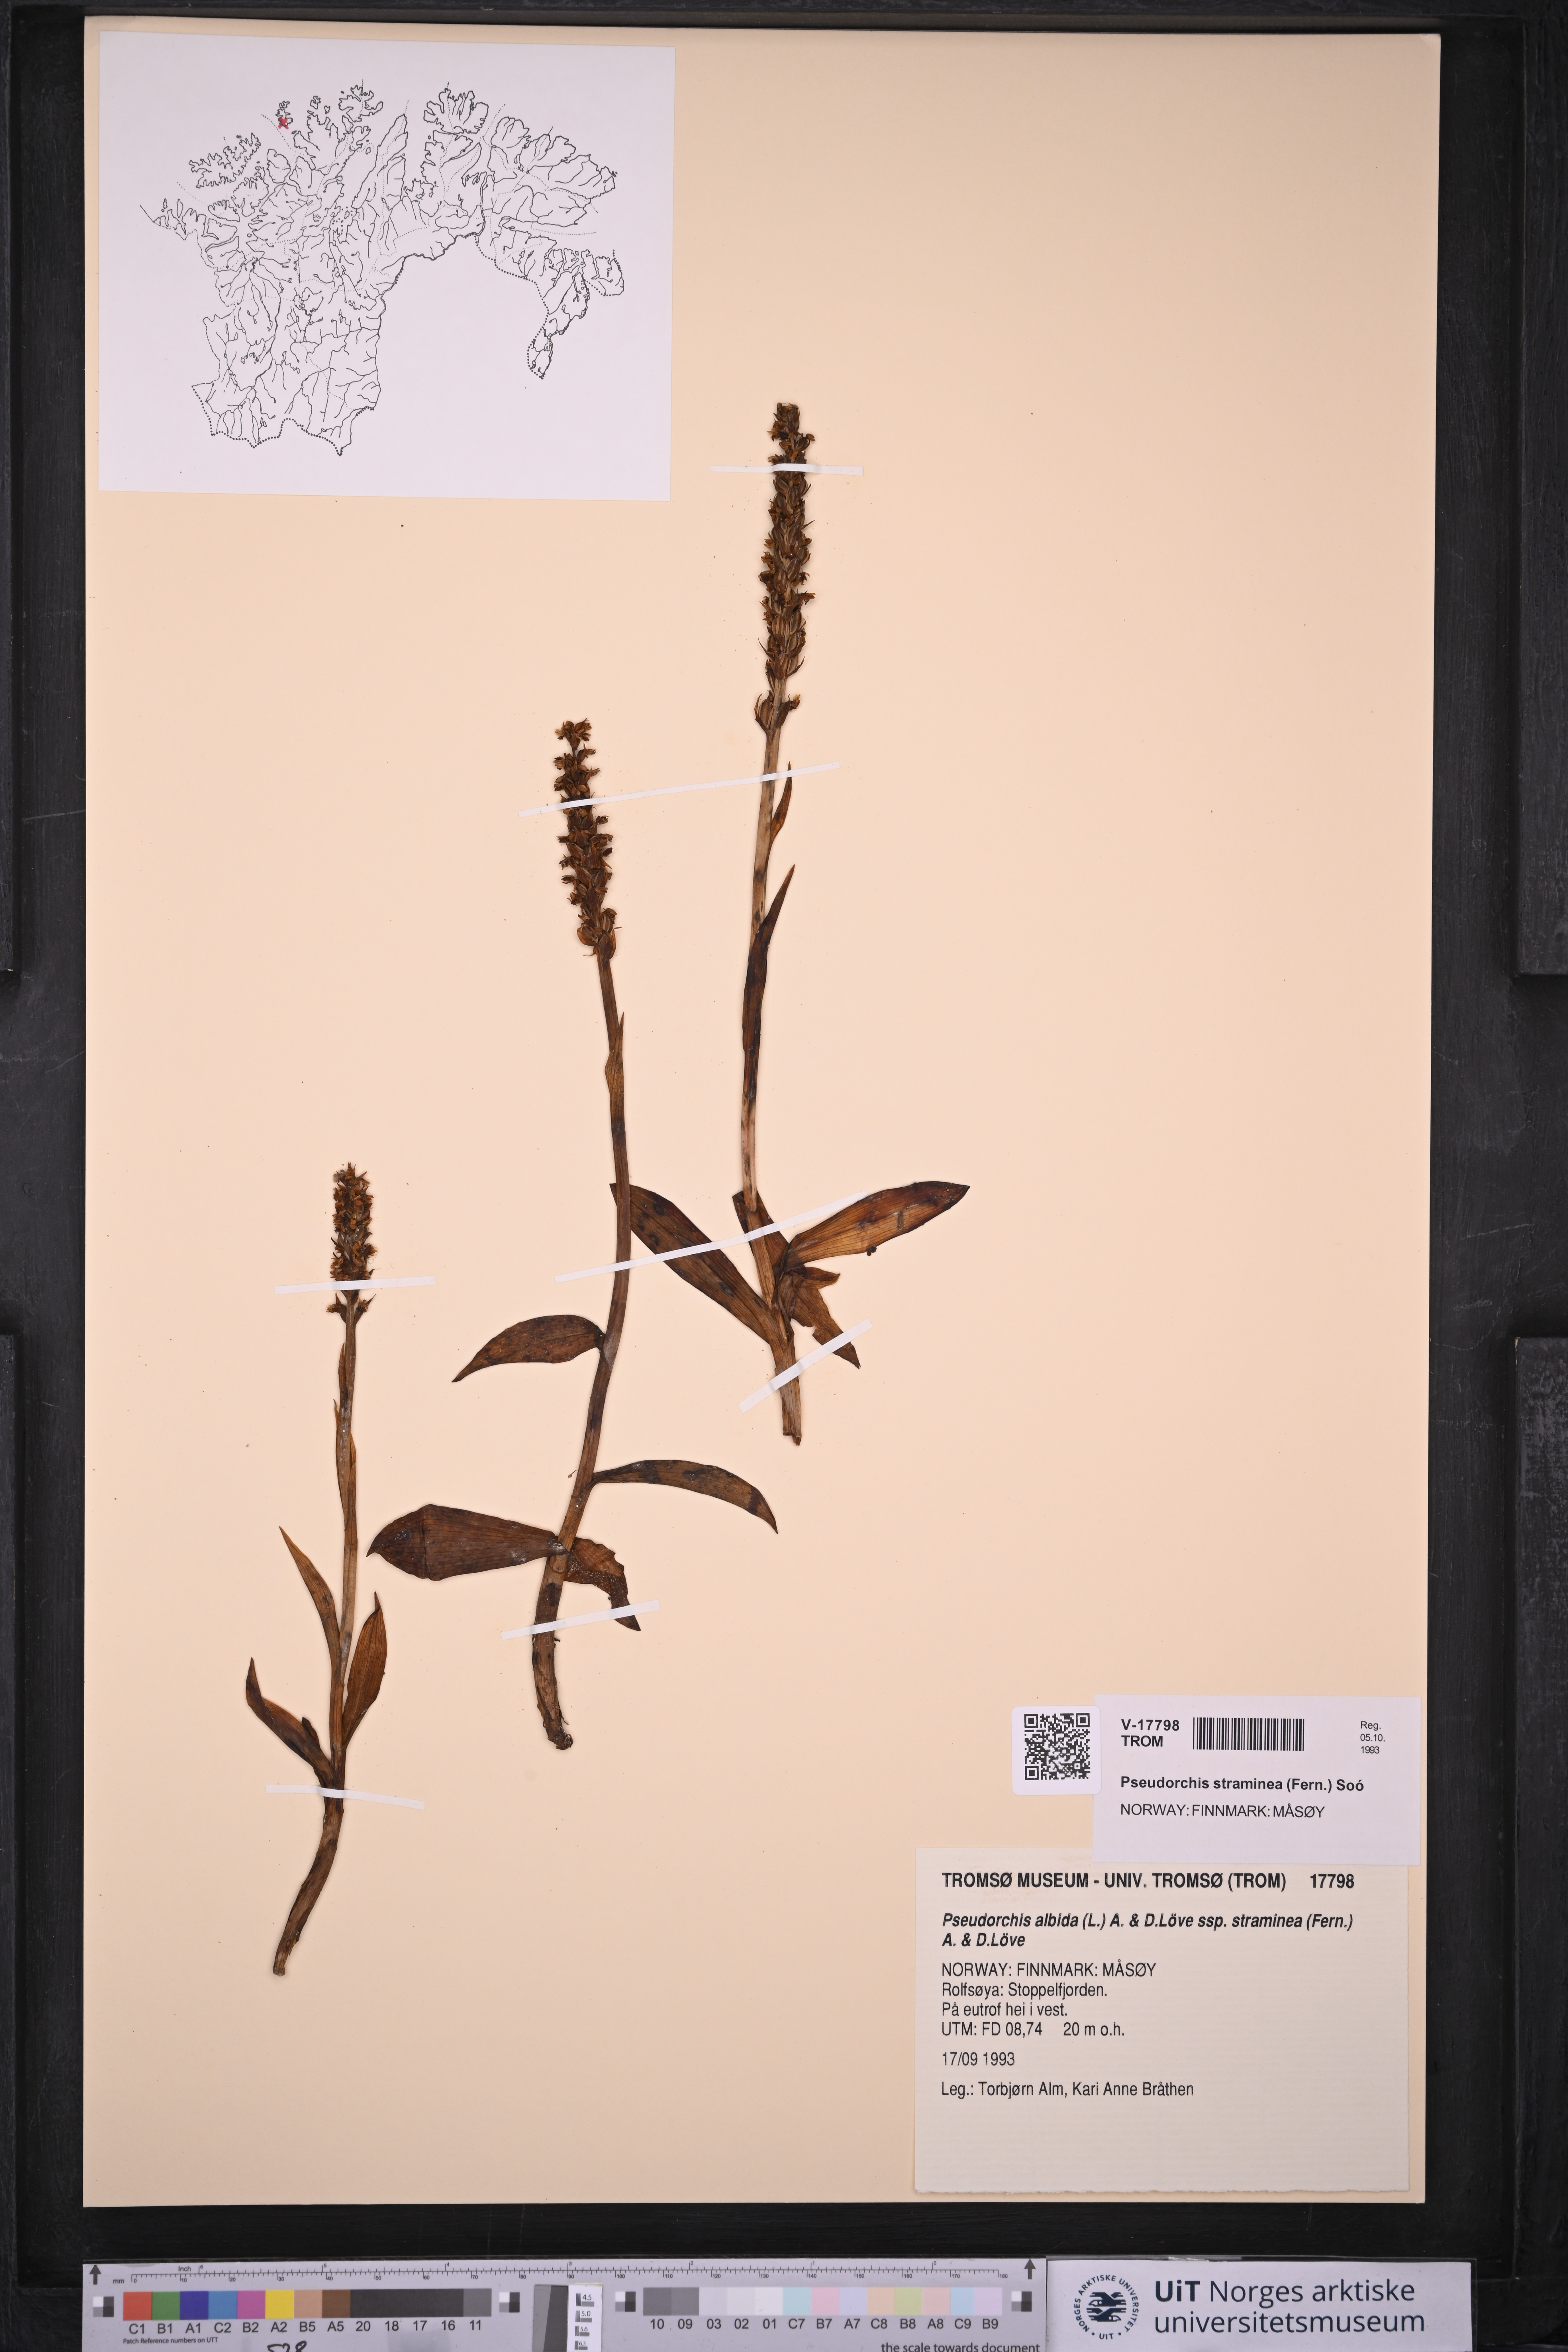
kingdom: Plantae
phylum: Tracheophyta
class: Liliopsida
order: Asparagales
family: Orchidaceae
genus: Pseudorchis
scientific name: Pseudorchis straminea
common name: Vanilla-scented bog orchid
